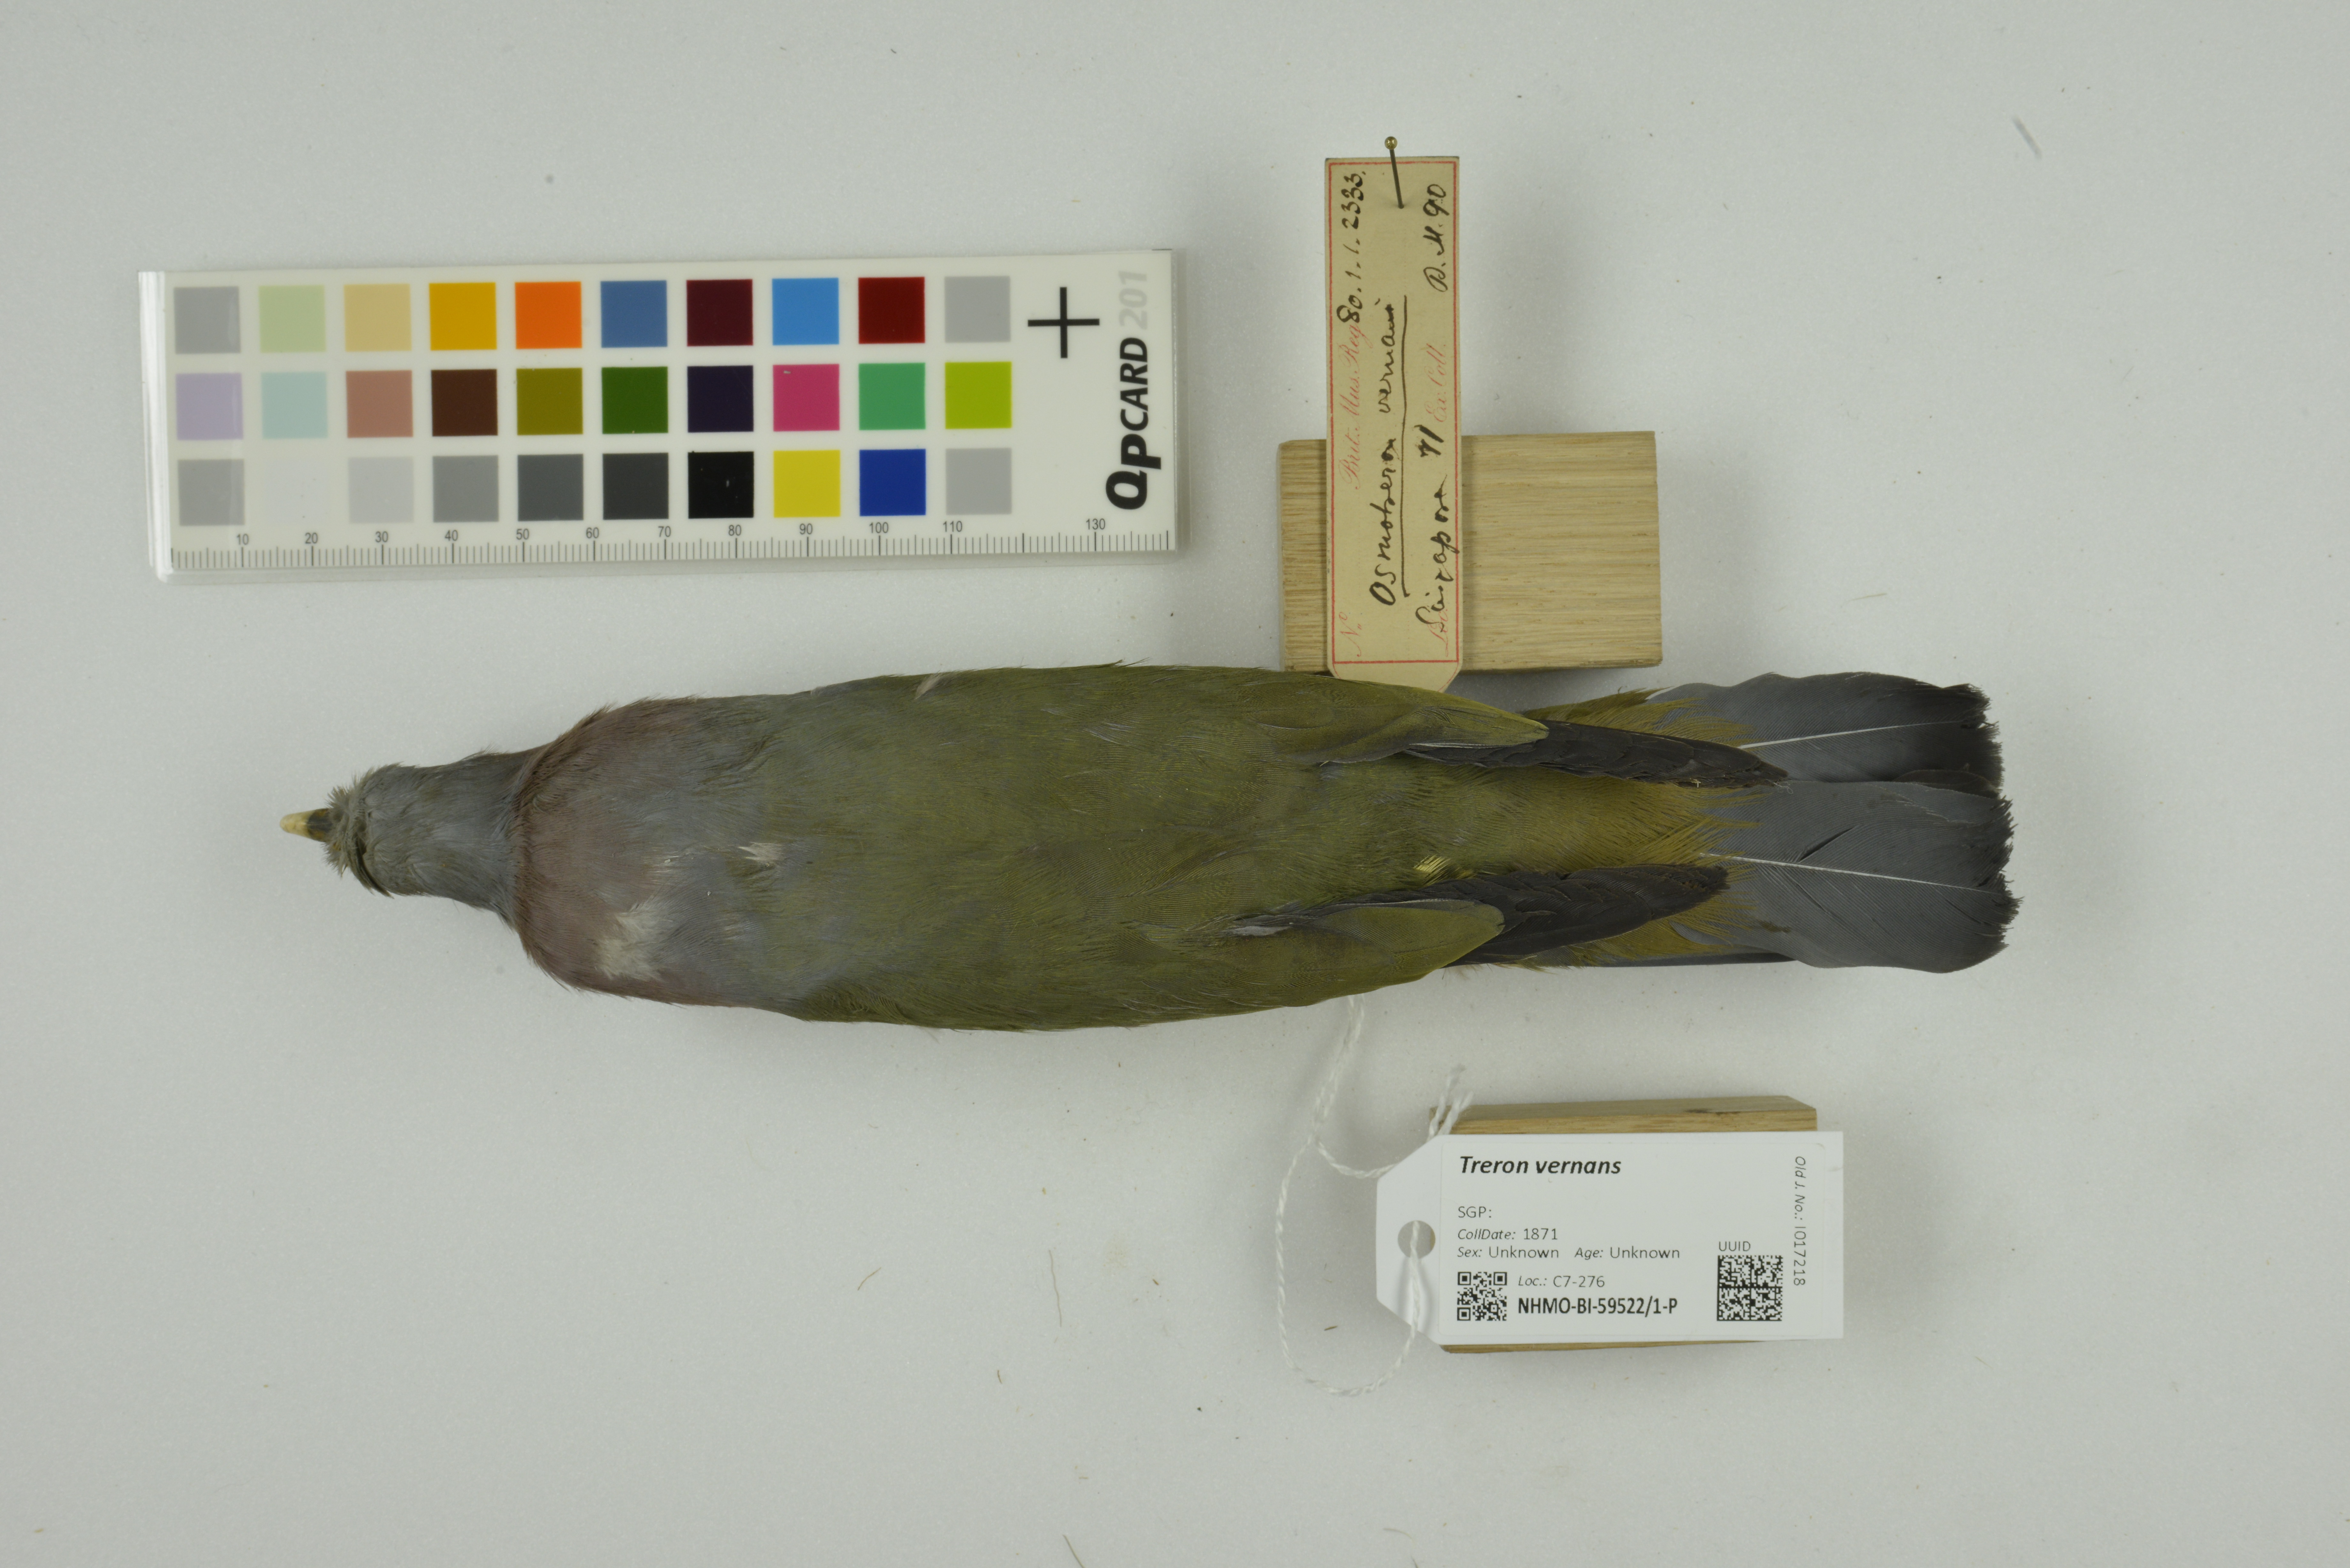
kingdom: Animalia
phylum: Chordata
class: Aves
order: Columbiformes
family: Columbidae
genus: Treron
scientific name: Treron vernans
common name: Pink-necked green pigeon
